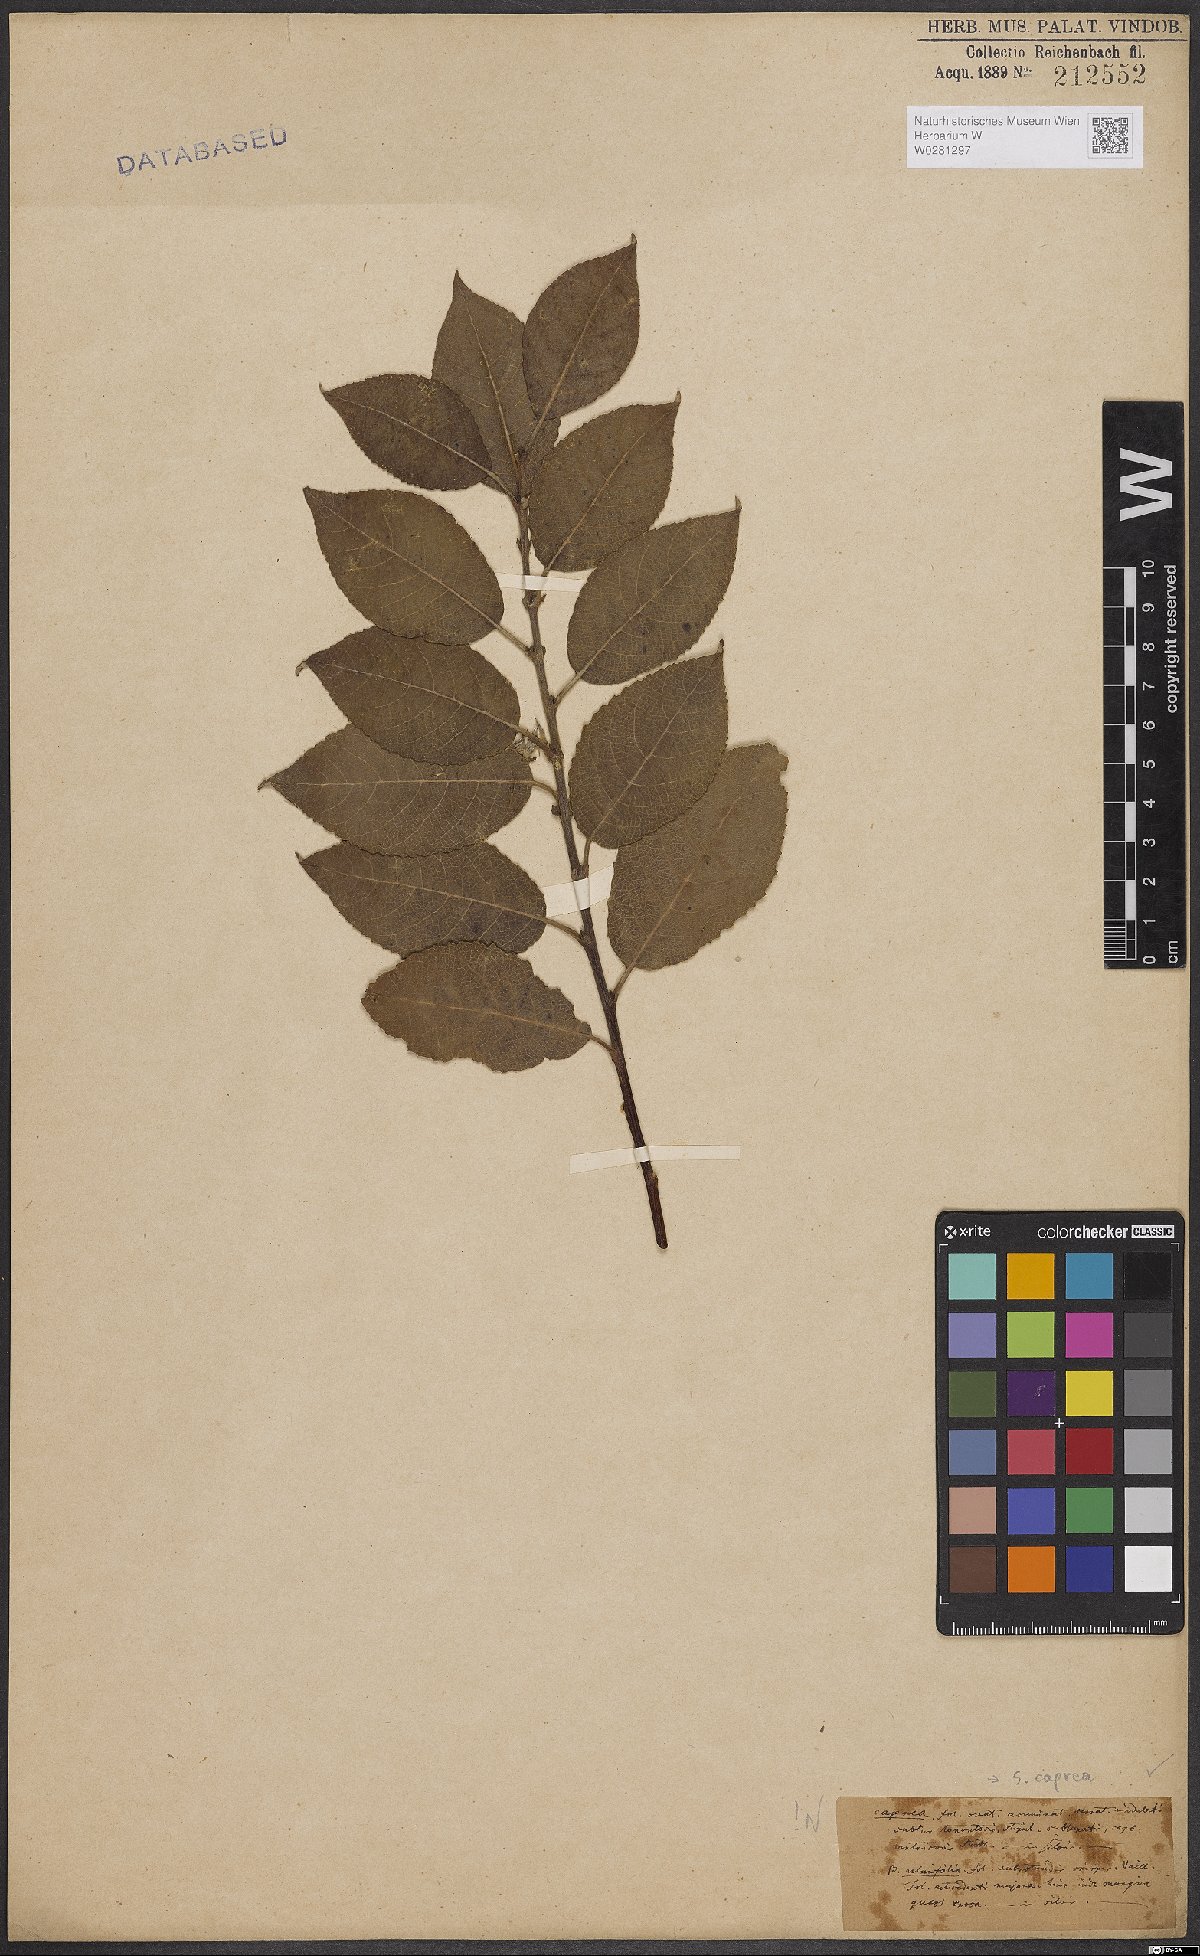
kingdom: Plantae
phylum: Tracheophyta
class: Magnoliopsida
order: Malpighiales
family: Salicaceae
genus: Salix
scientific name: Salix caprea
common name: Goat willow
